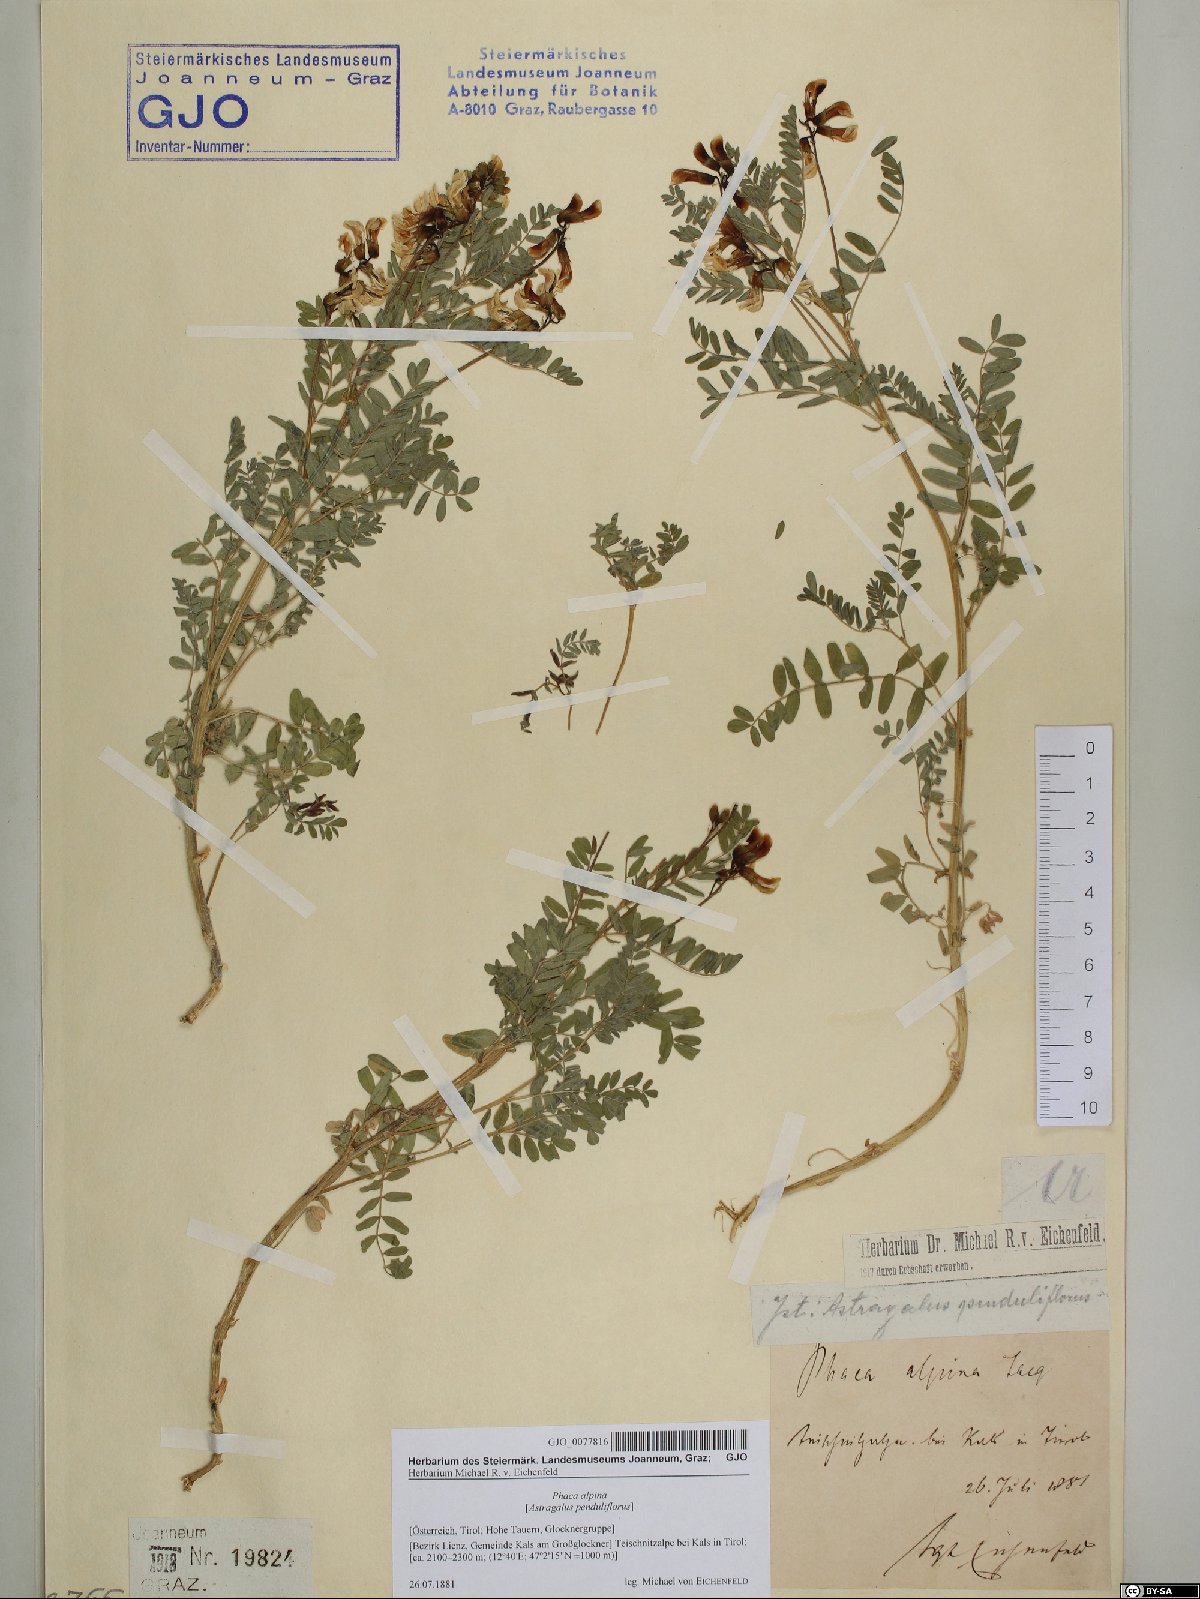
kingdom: Plantae
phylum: Tracheophyta
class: Magnoliopsida
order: Fabales
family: Fabaceae
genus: Astragalus
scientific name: Astragalus penduliflorus
